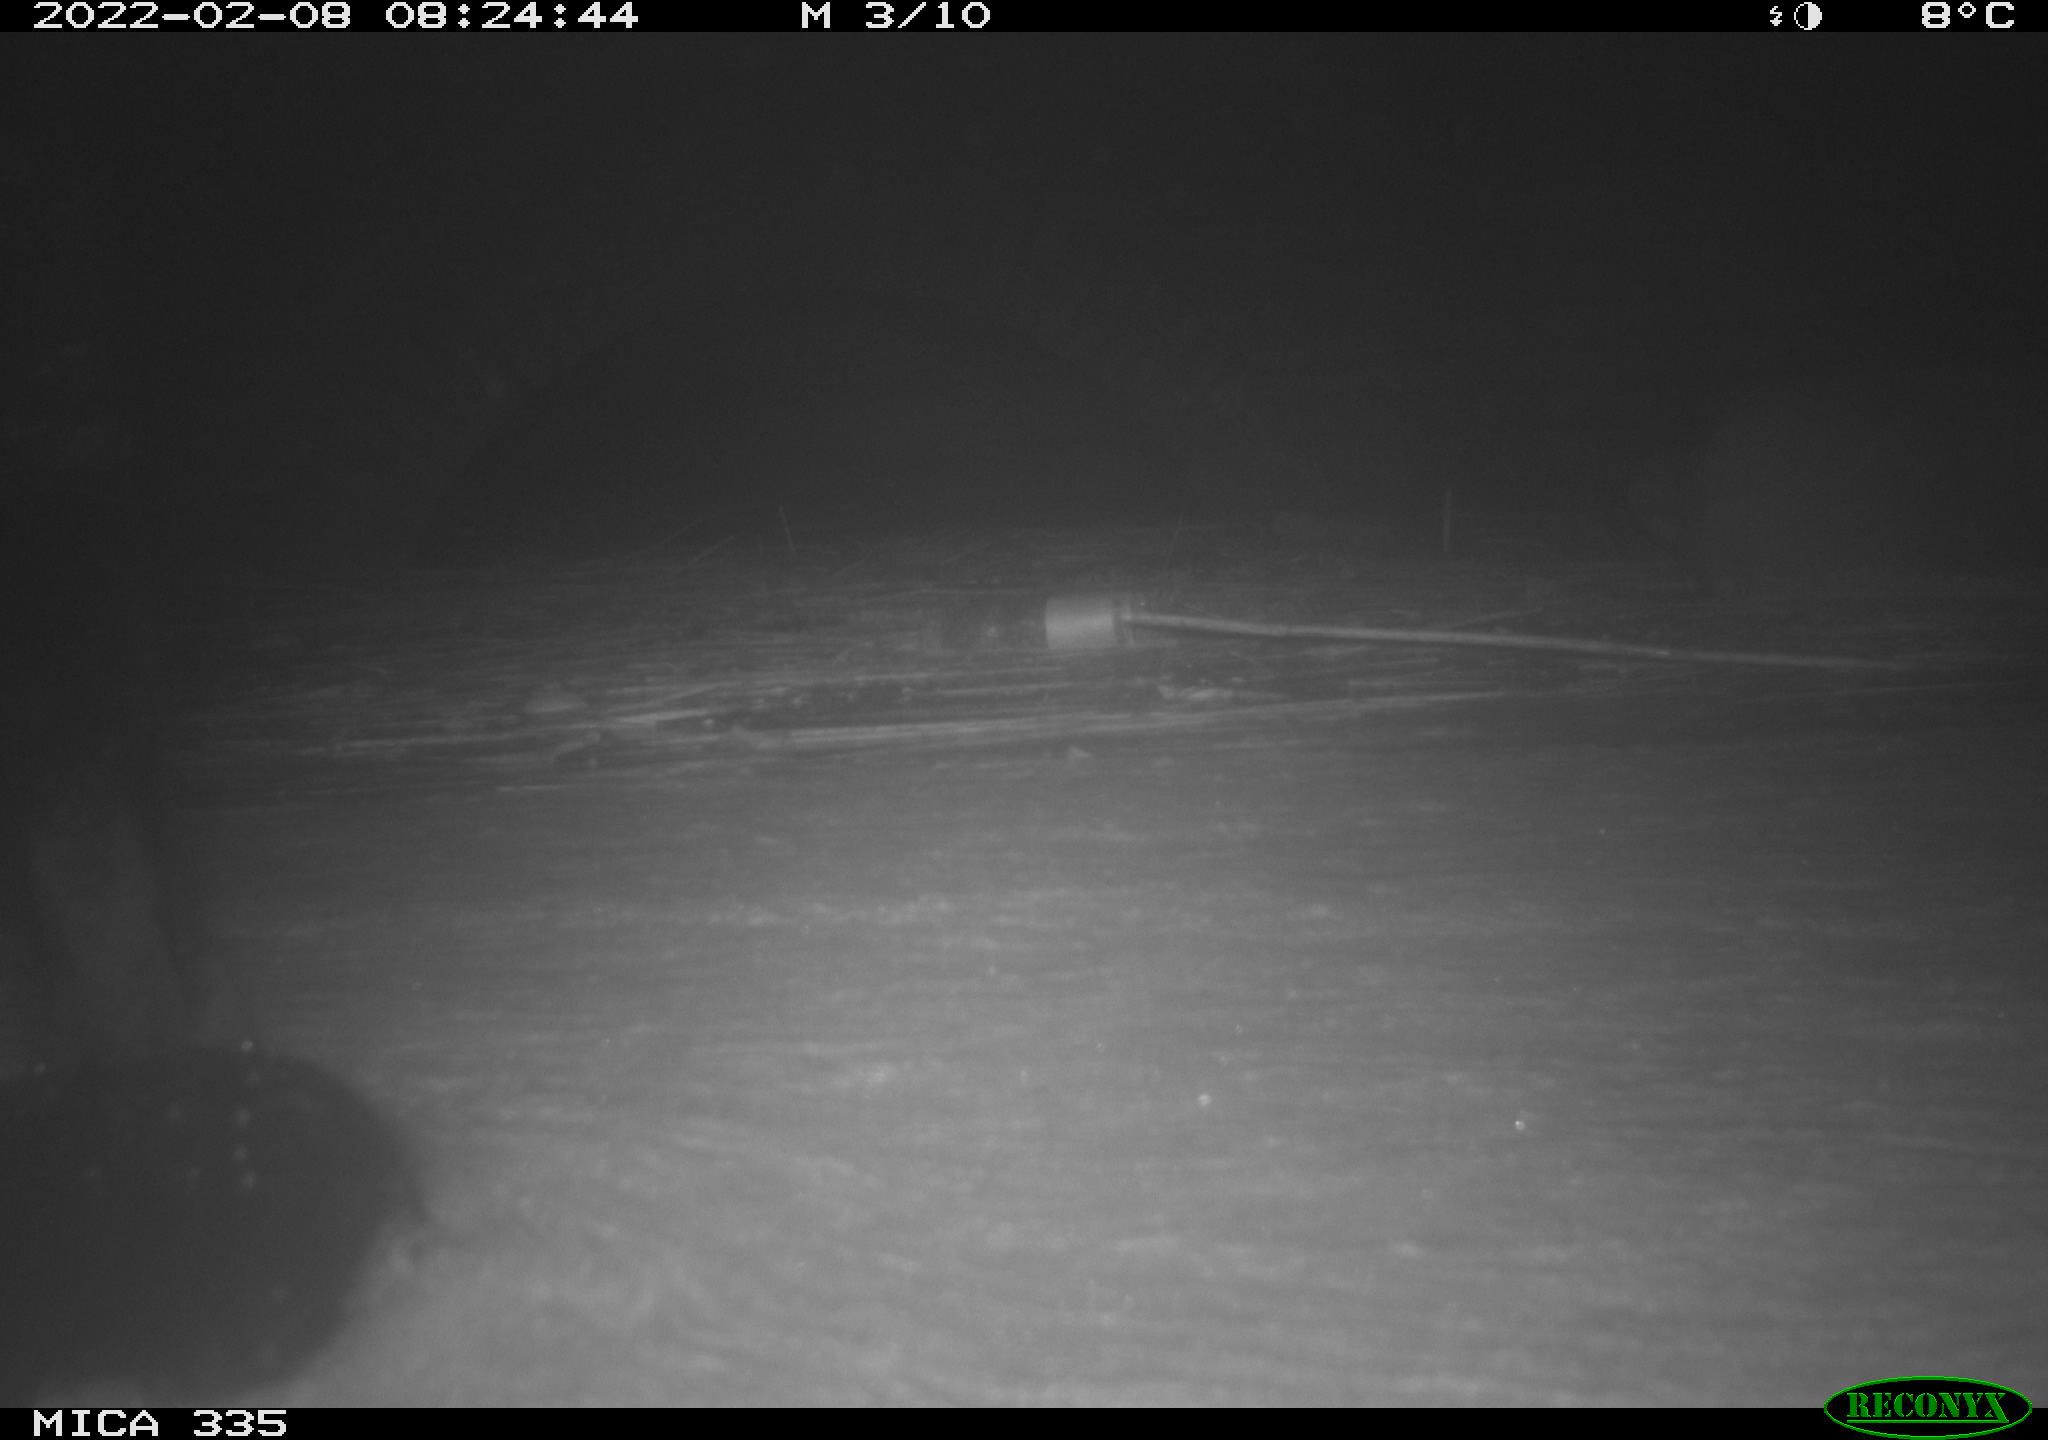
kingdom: Animalia
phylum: Chordata
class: Aves
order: Suliformes
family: Phalacrocoracidae
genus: Phalacrocorax
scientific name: Phalacrocorax carbo
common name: Great cormorant
